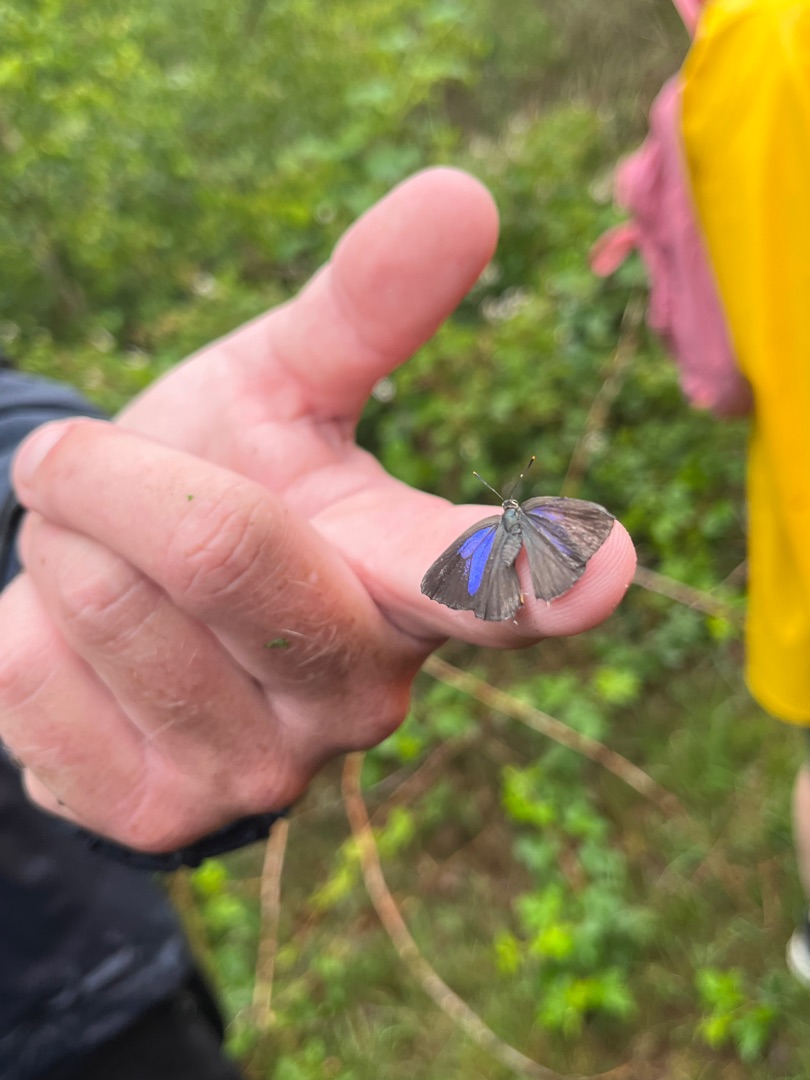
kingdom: Animalia
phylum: Arthropoda
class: Insecta
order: Lepidoptera
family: Lycaenidae
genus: Quercusia
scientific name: Quercusia quercus
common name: Blåhale
